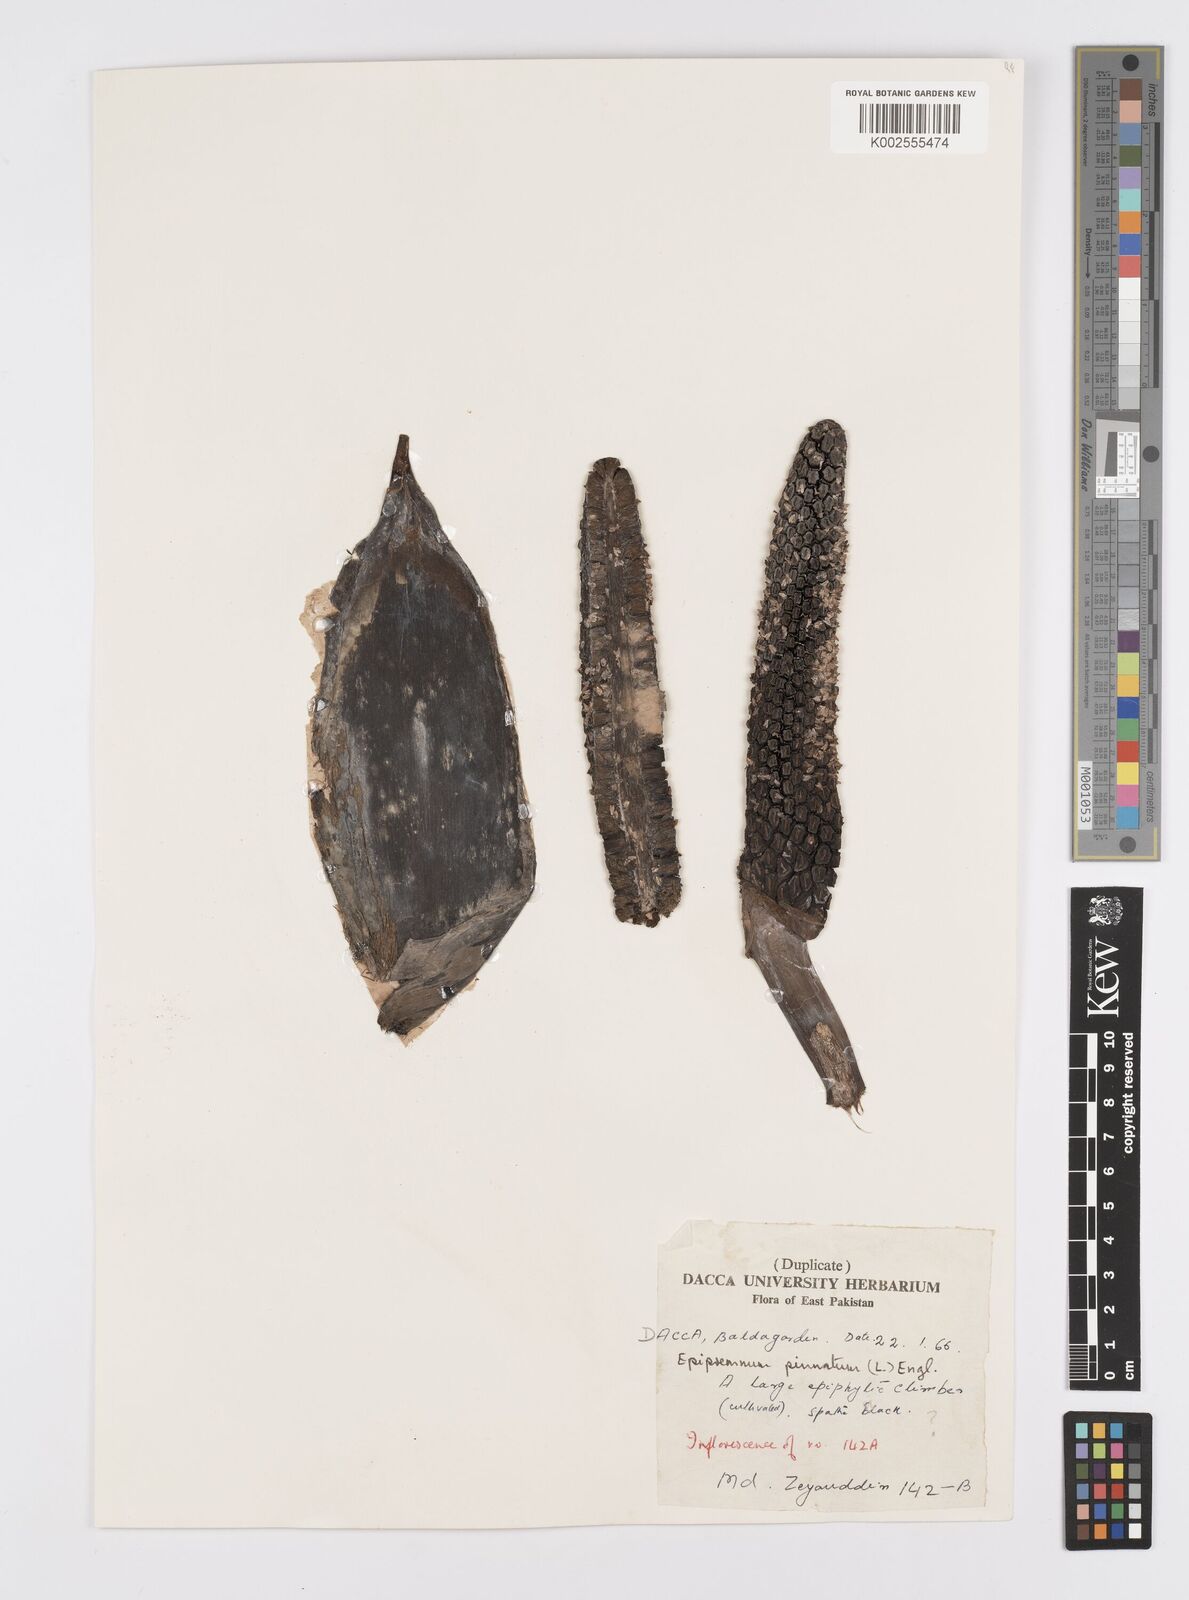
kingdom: Plantae
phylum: Tracheophyta
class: Liliopsida
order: Alismatales
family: Araceae
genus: Epipremnum
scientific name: Epipremnum pinnatum
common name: Centipede tongavine
